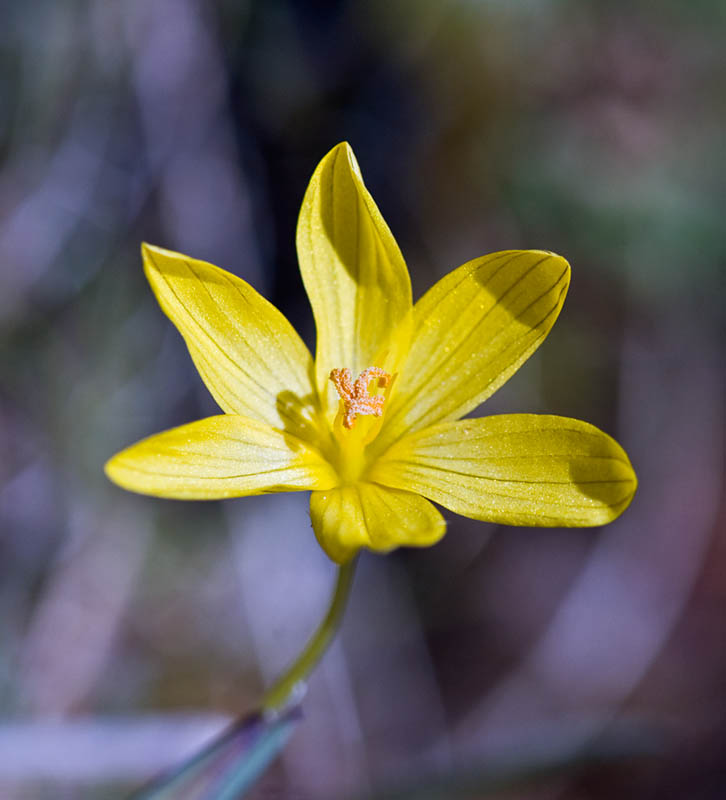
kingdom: Plantae
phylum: Tracheophyta
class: Liliopsida
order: Asparagales
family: Iridaceae
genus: Sisyrinchium
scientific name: Sisyrinchium californicum
